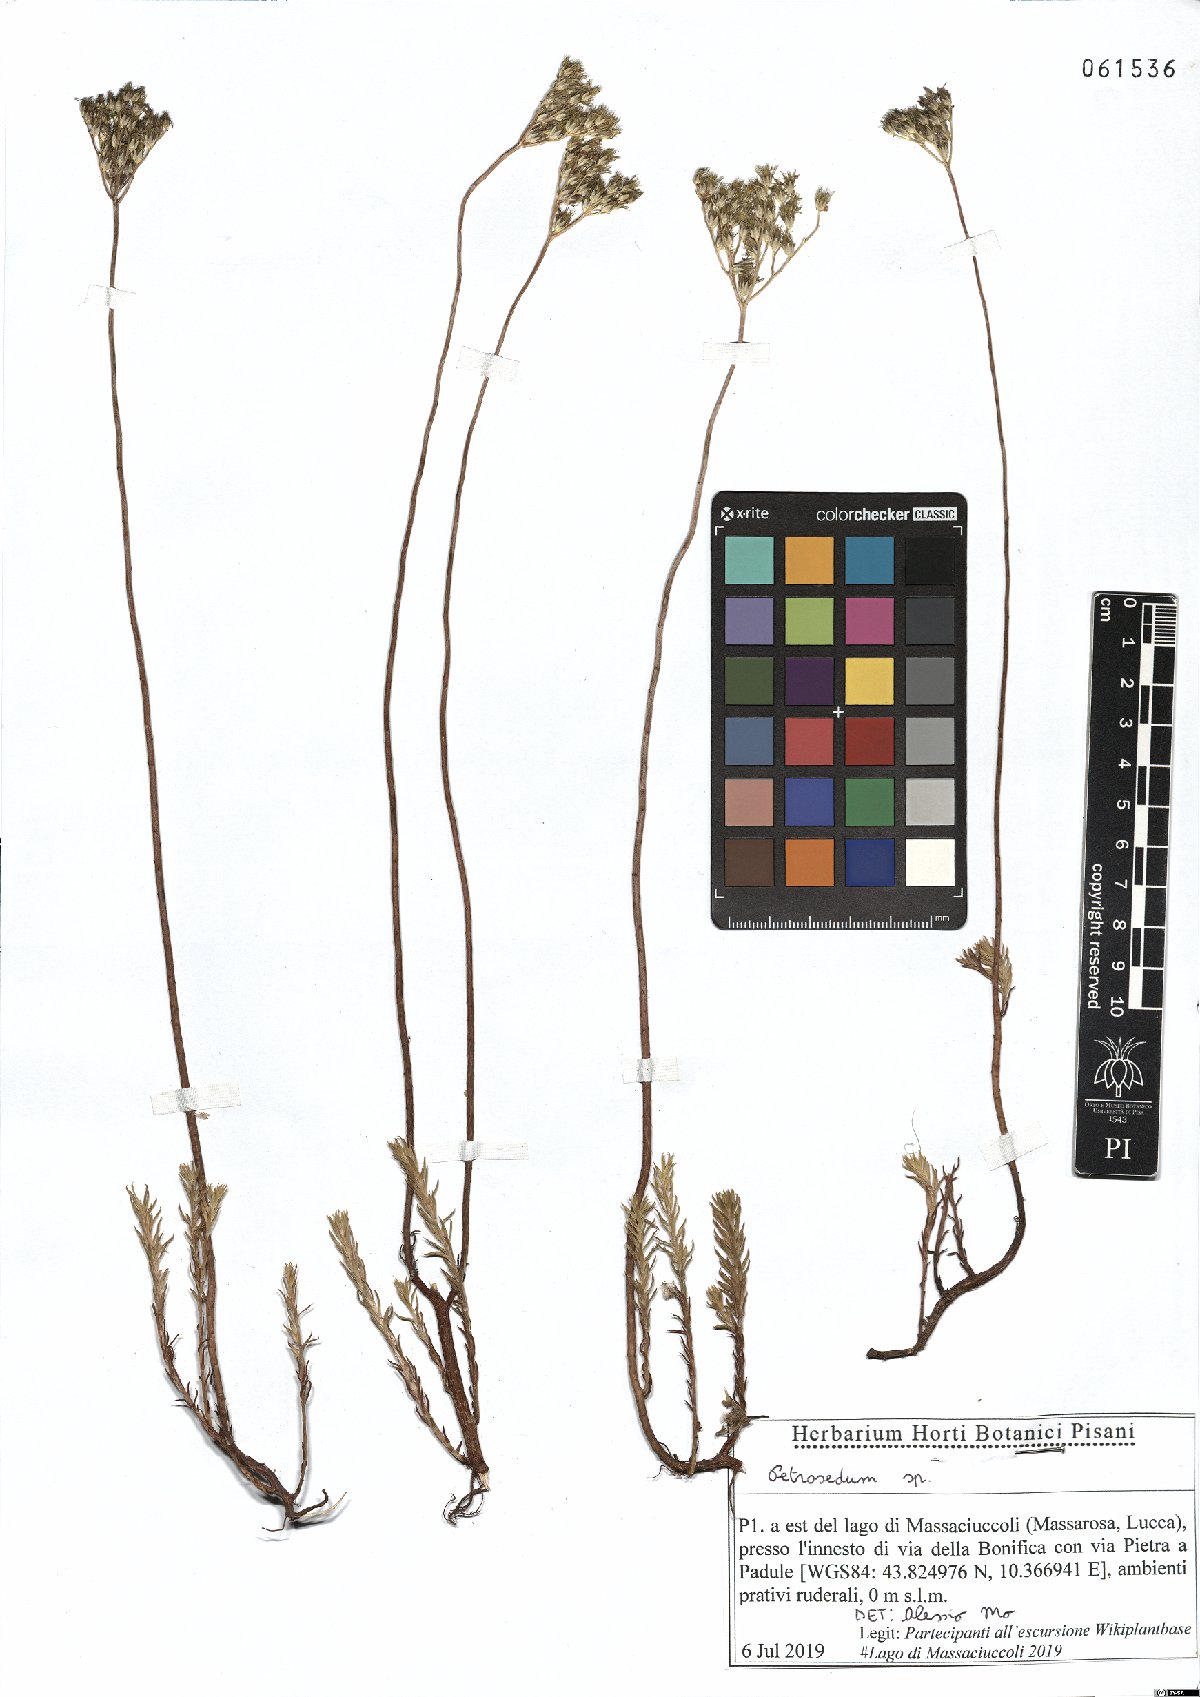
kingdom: Plantae
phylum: Tracheophyta
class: Magnoliopsida
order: Saxifragales
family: Crassulaceae
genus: Petrosedum
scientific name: Petrosedum
